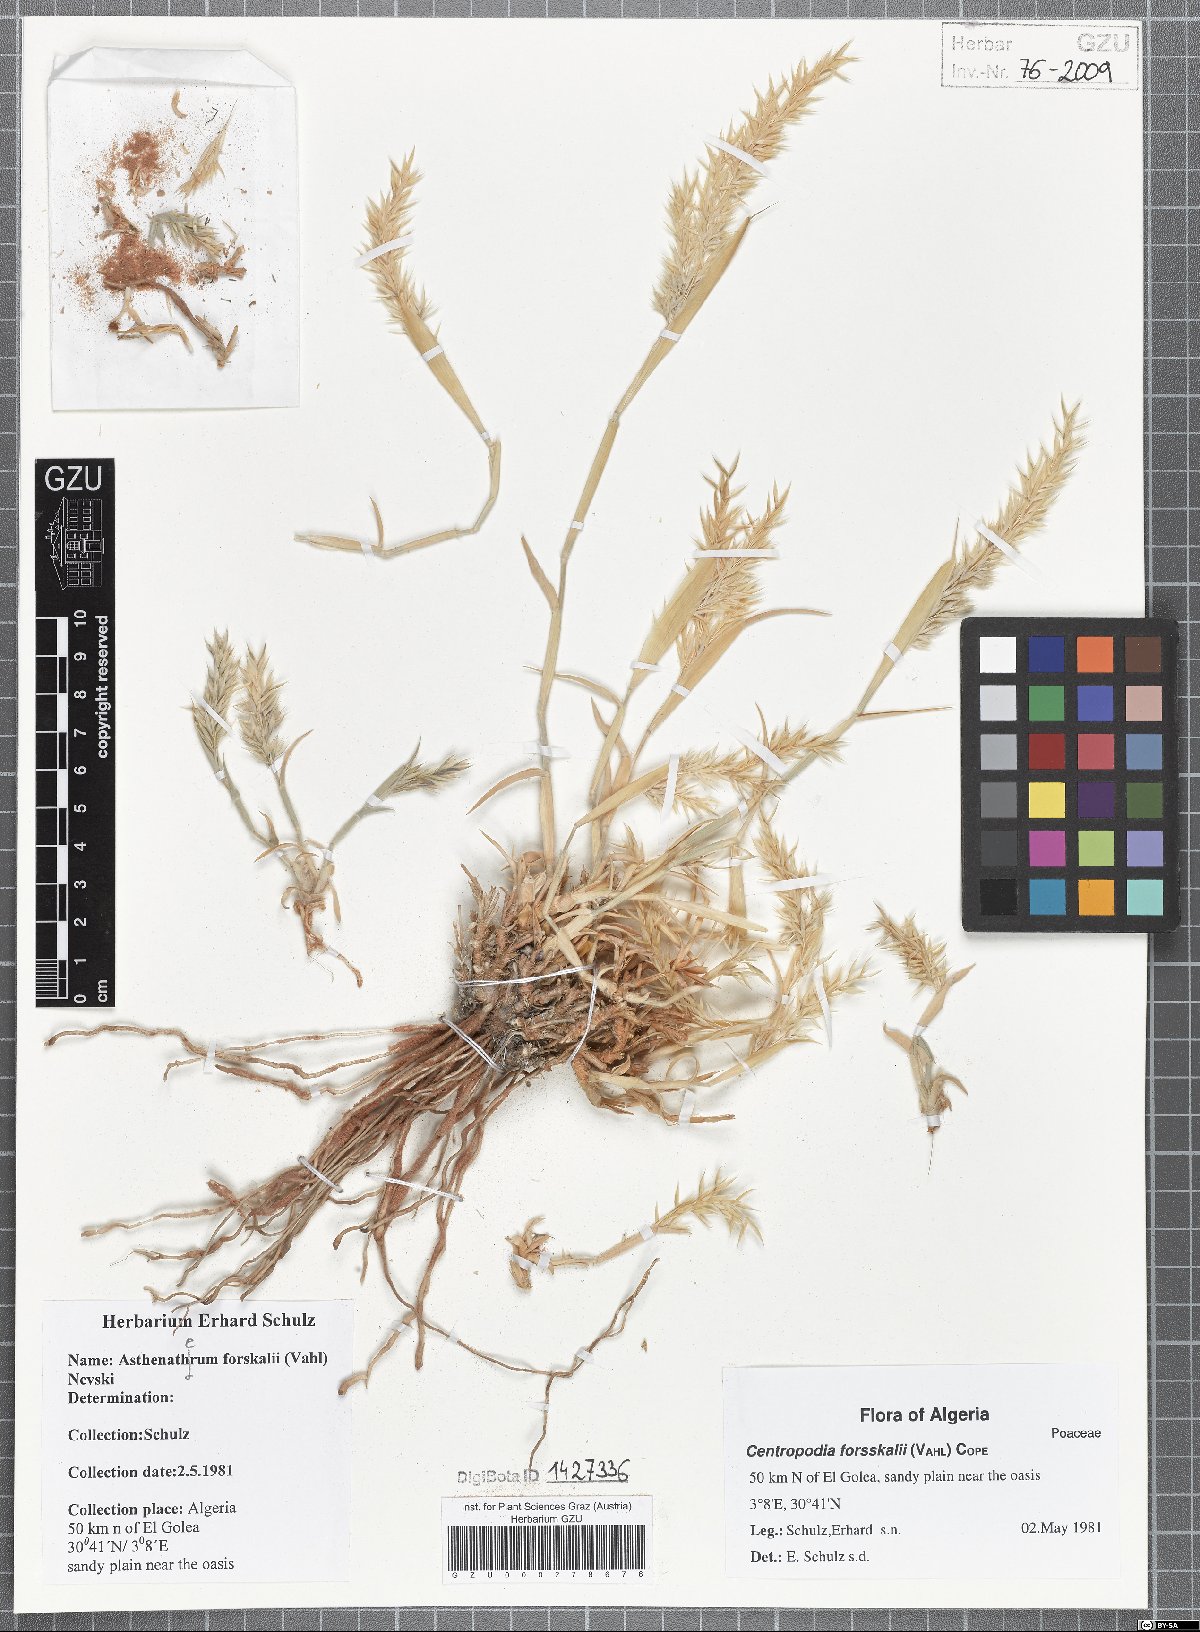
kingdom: Plantae
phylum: Tracheophyta
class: Liliopsida
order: Poales
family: Poaceae
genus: Centropodia
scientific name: Centropodia forsskalii
